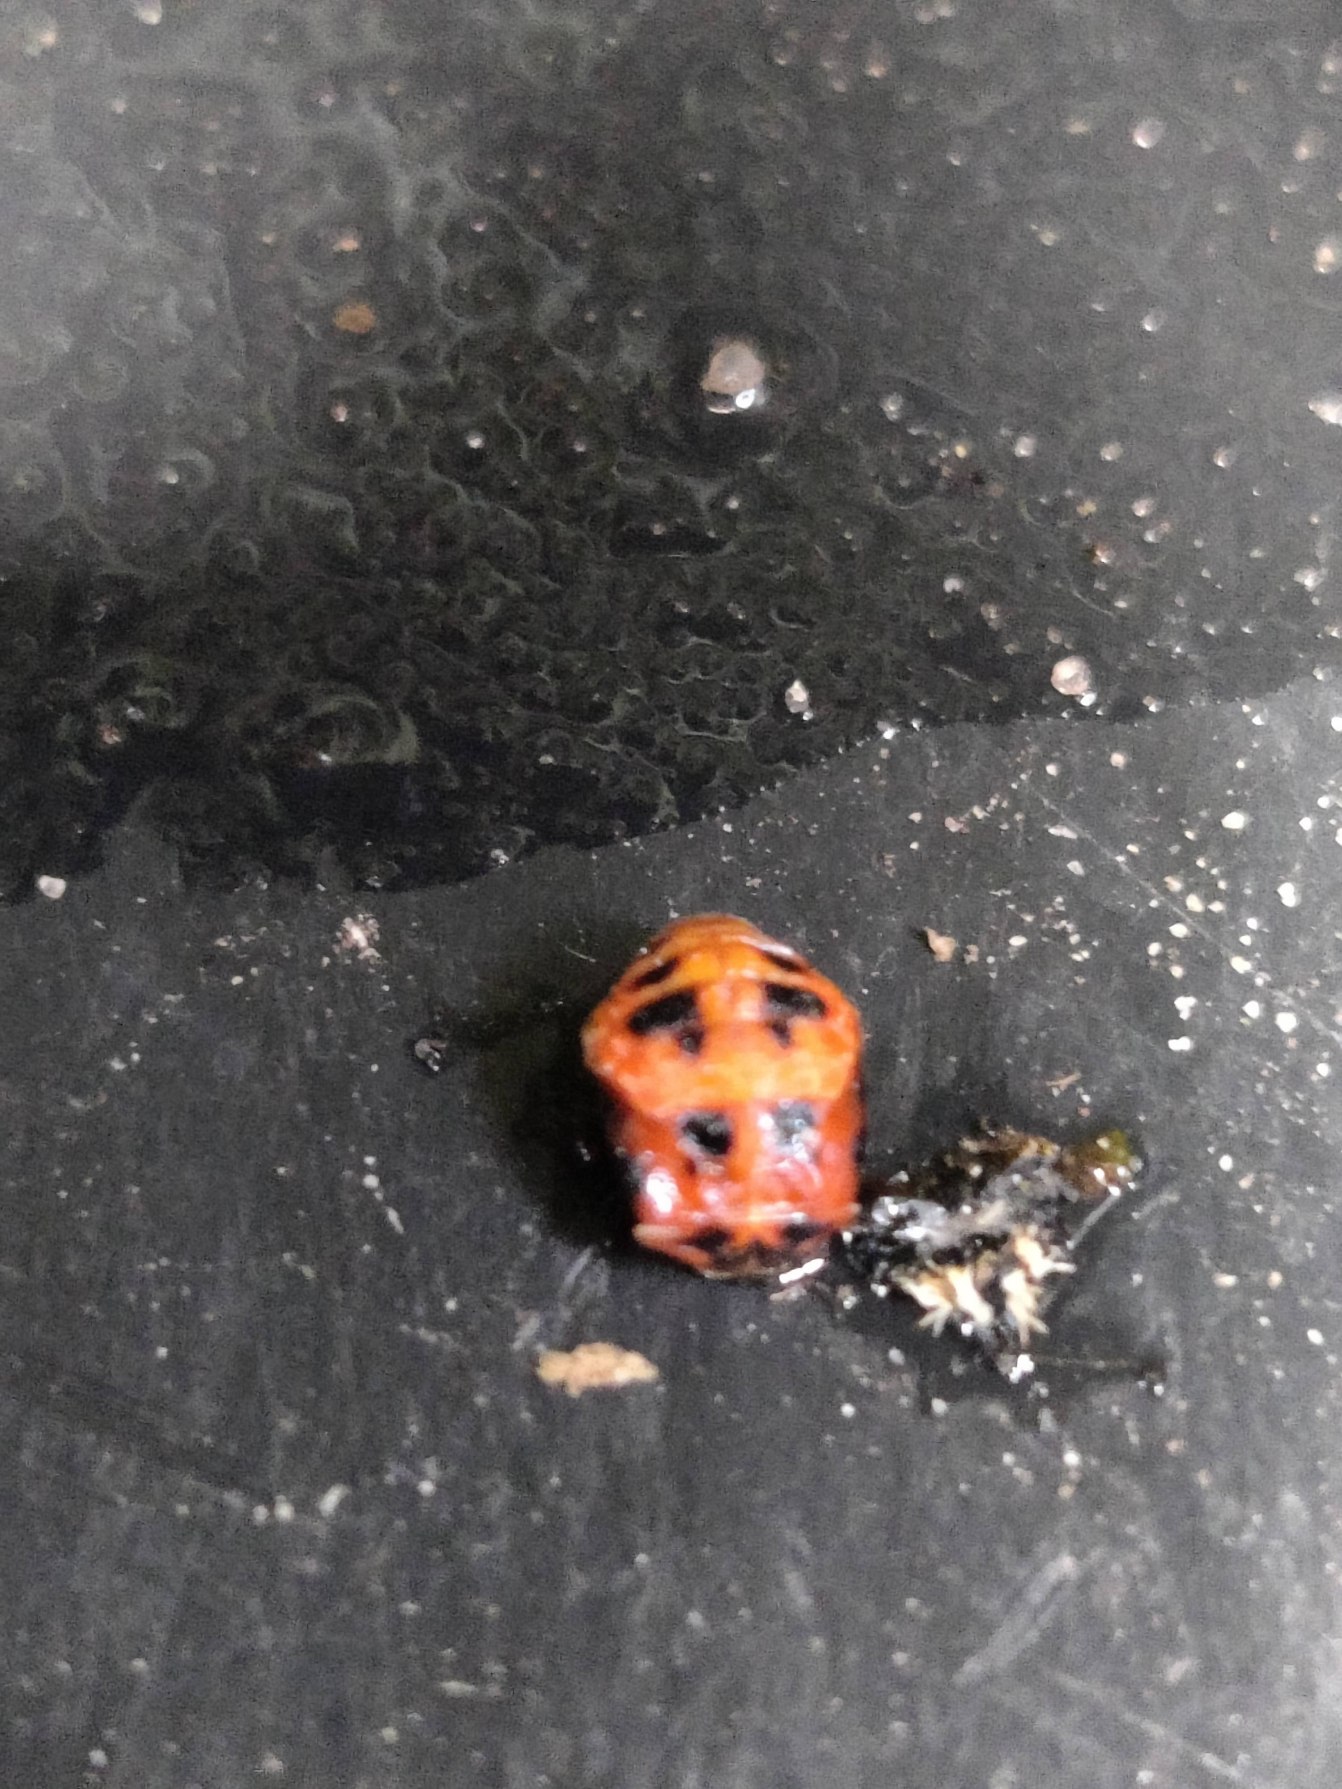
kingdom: Animalia
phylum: Arthropoda
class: Insecta
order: Coleoptera
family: Coccinellidae
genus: Harmonia
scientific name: Harmonia axyridis
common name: Harlekinmariehøne
